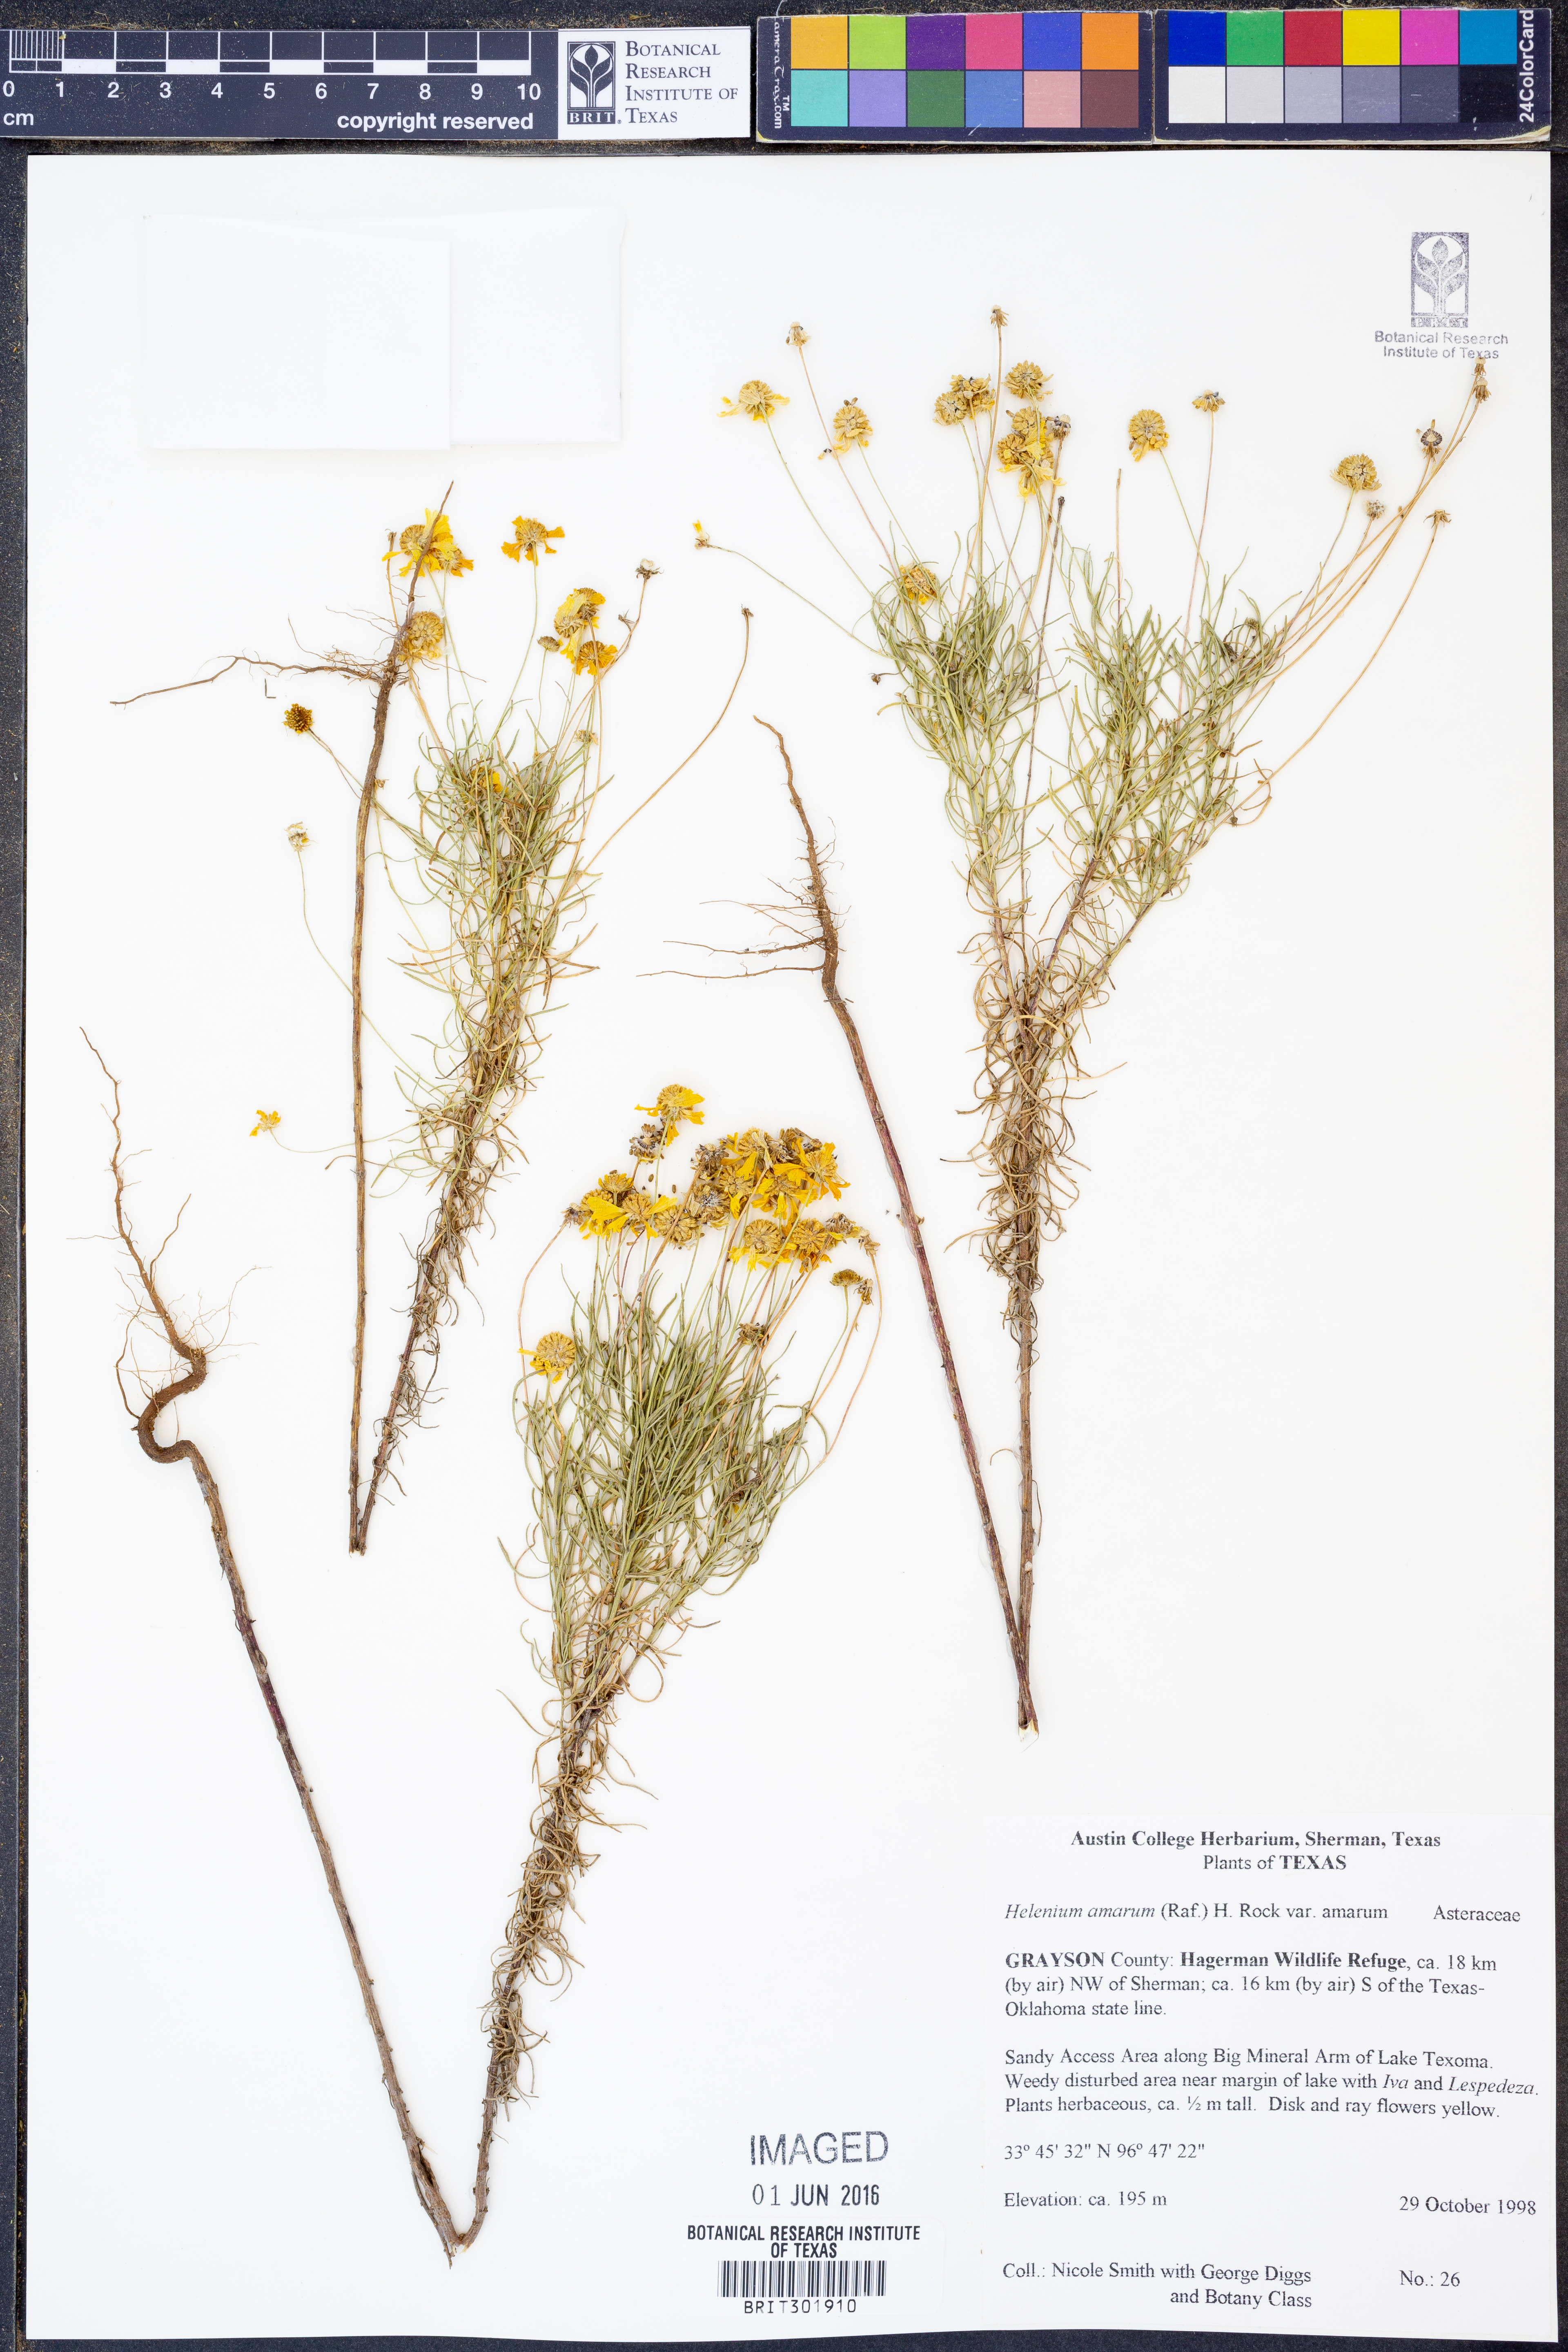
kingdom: Plantae
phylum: Tracheophyta
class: Magnoliopsida
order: Asterales
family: Asteraceae
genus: Helenium
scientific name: Helenium amarum
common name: Bitter sneezeweed
